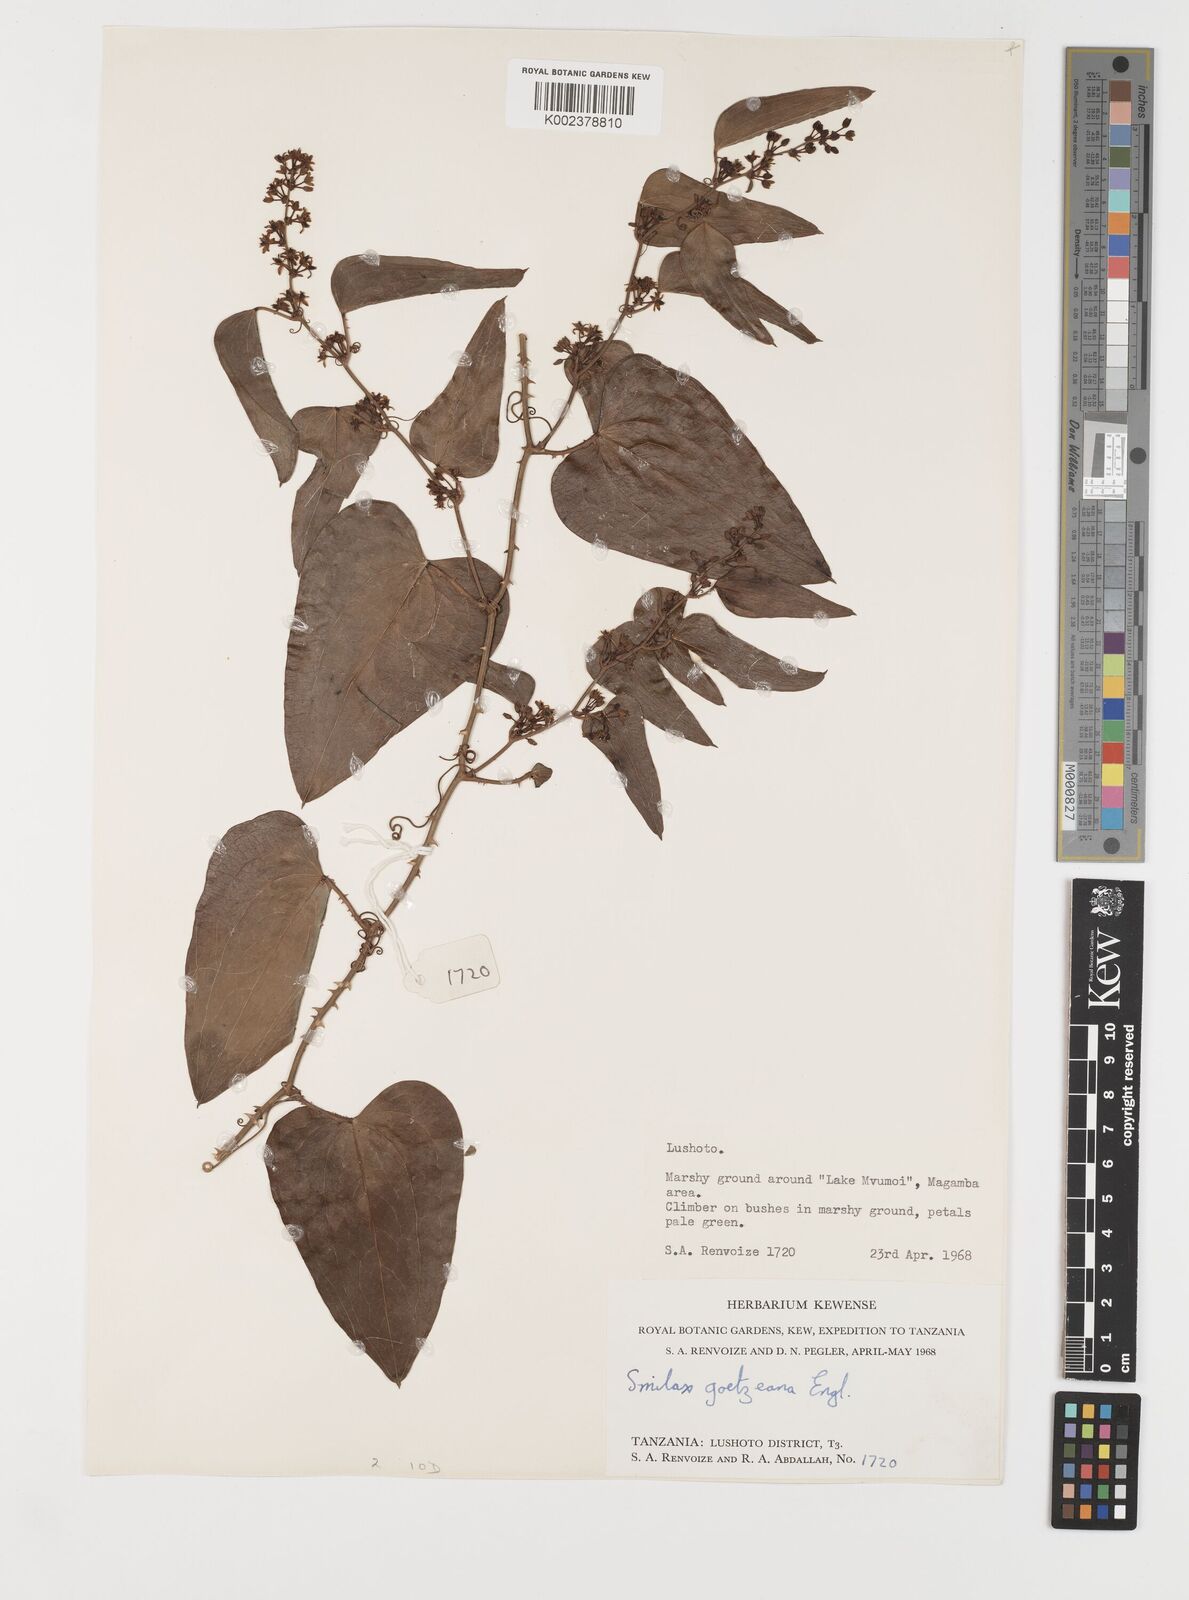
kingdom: Plantae
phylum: Tracheophyta
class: Liliopsida
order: Liliales
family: Smilacaceae
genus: Smilax
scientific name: Smilax aspera
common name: Common smilax
